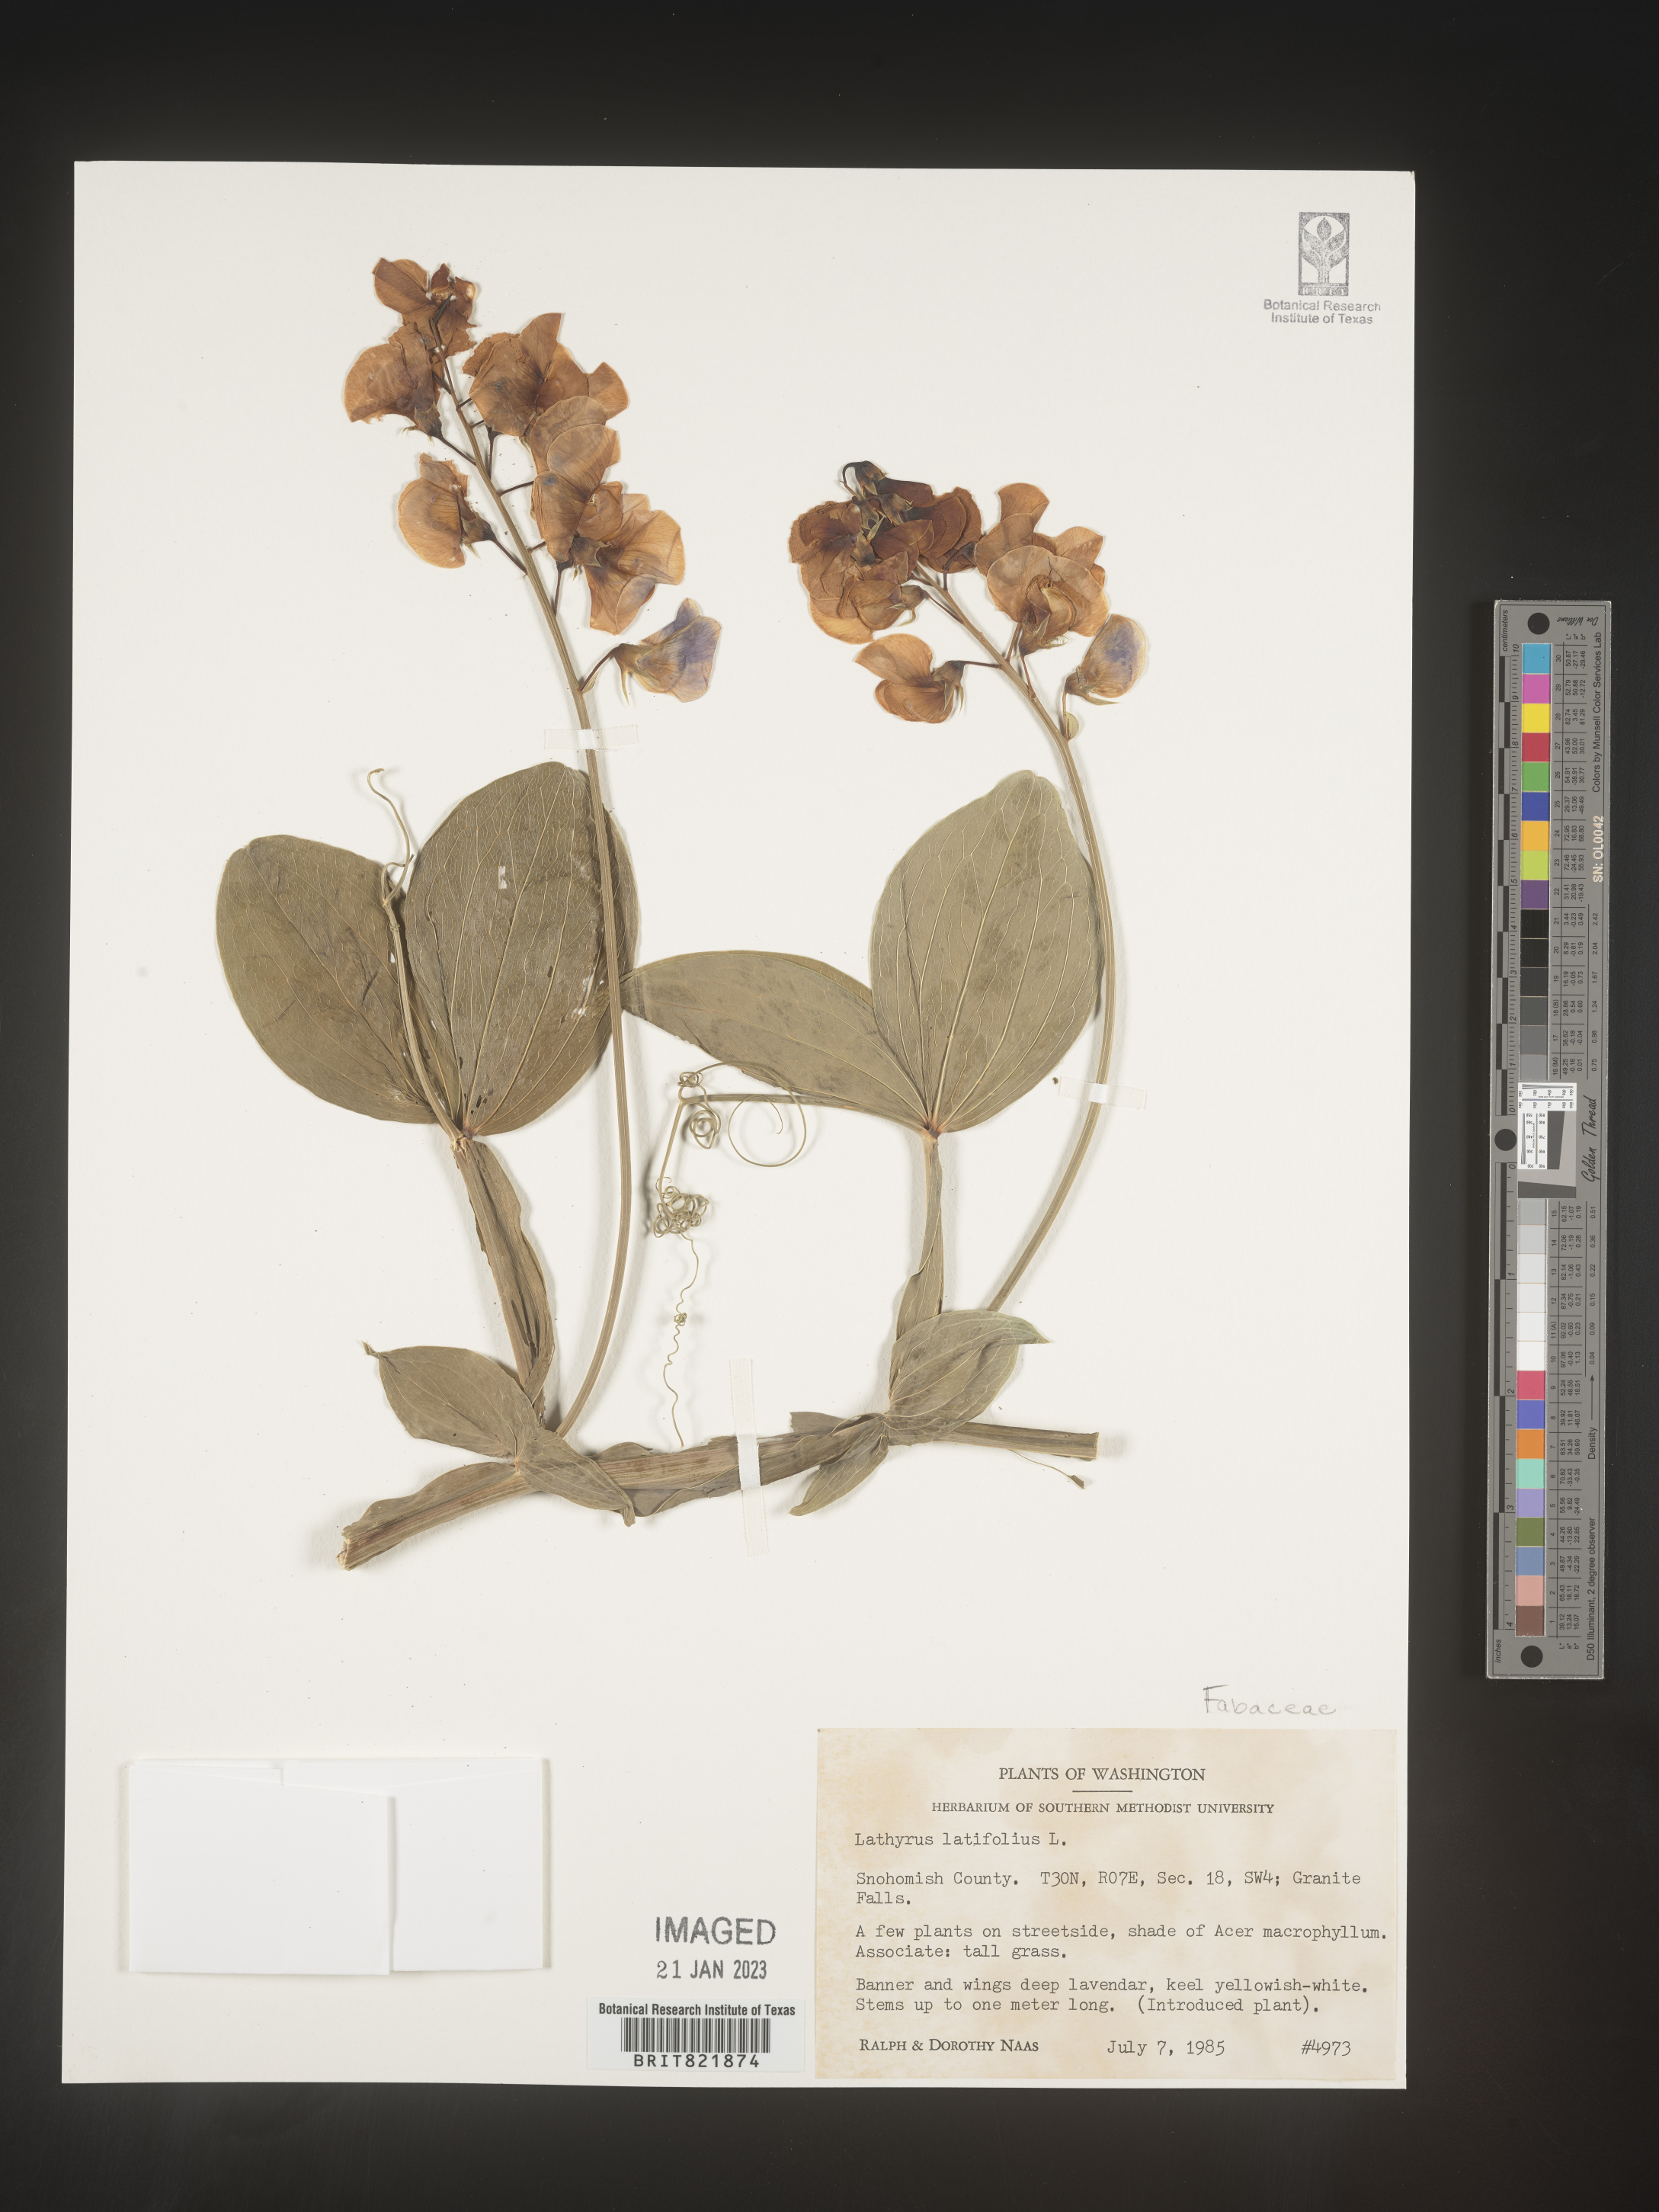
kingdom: Plantae
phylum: Tracheophyta
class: Magnoliopsida
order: Fabales
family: Fabaceae
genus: Lathyrus
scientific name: Lathyrus latifolius
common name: Perennial pea
